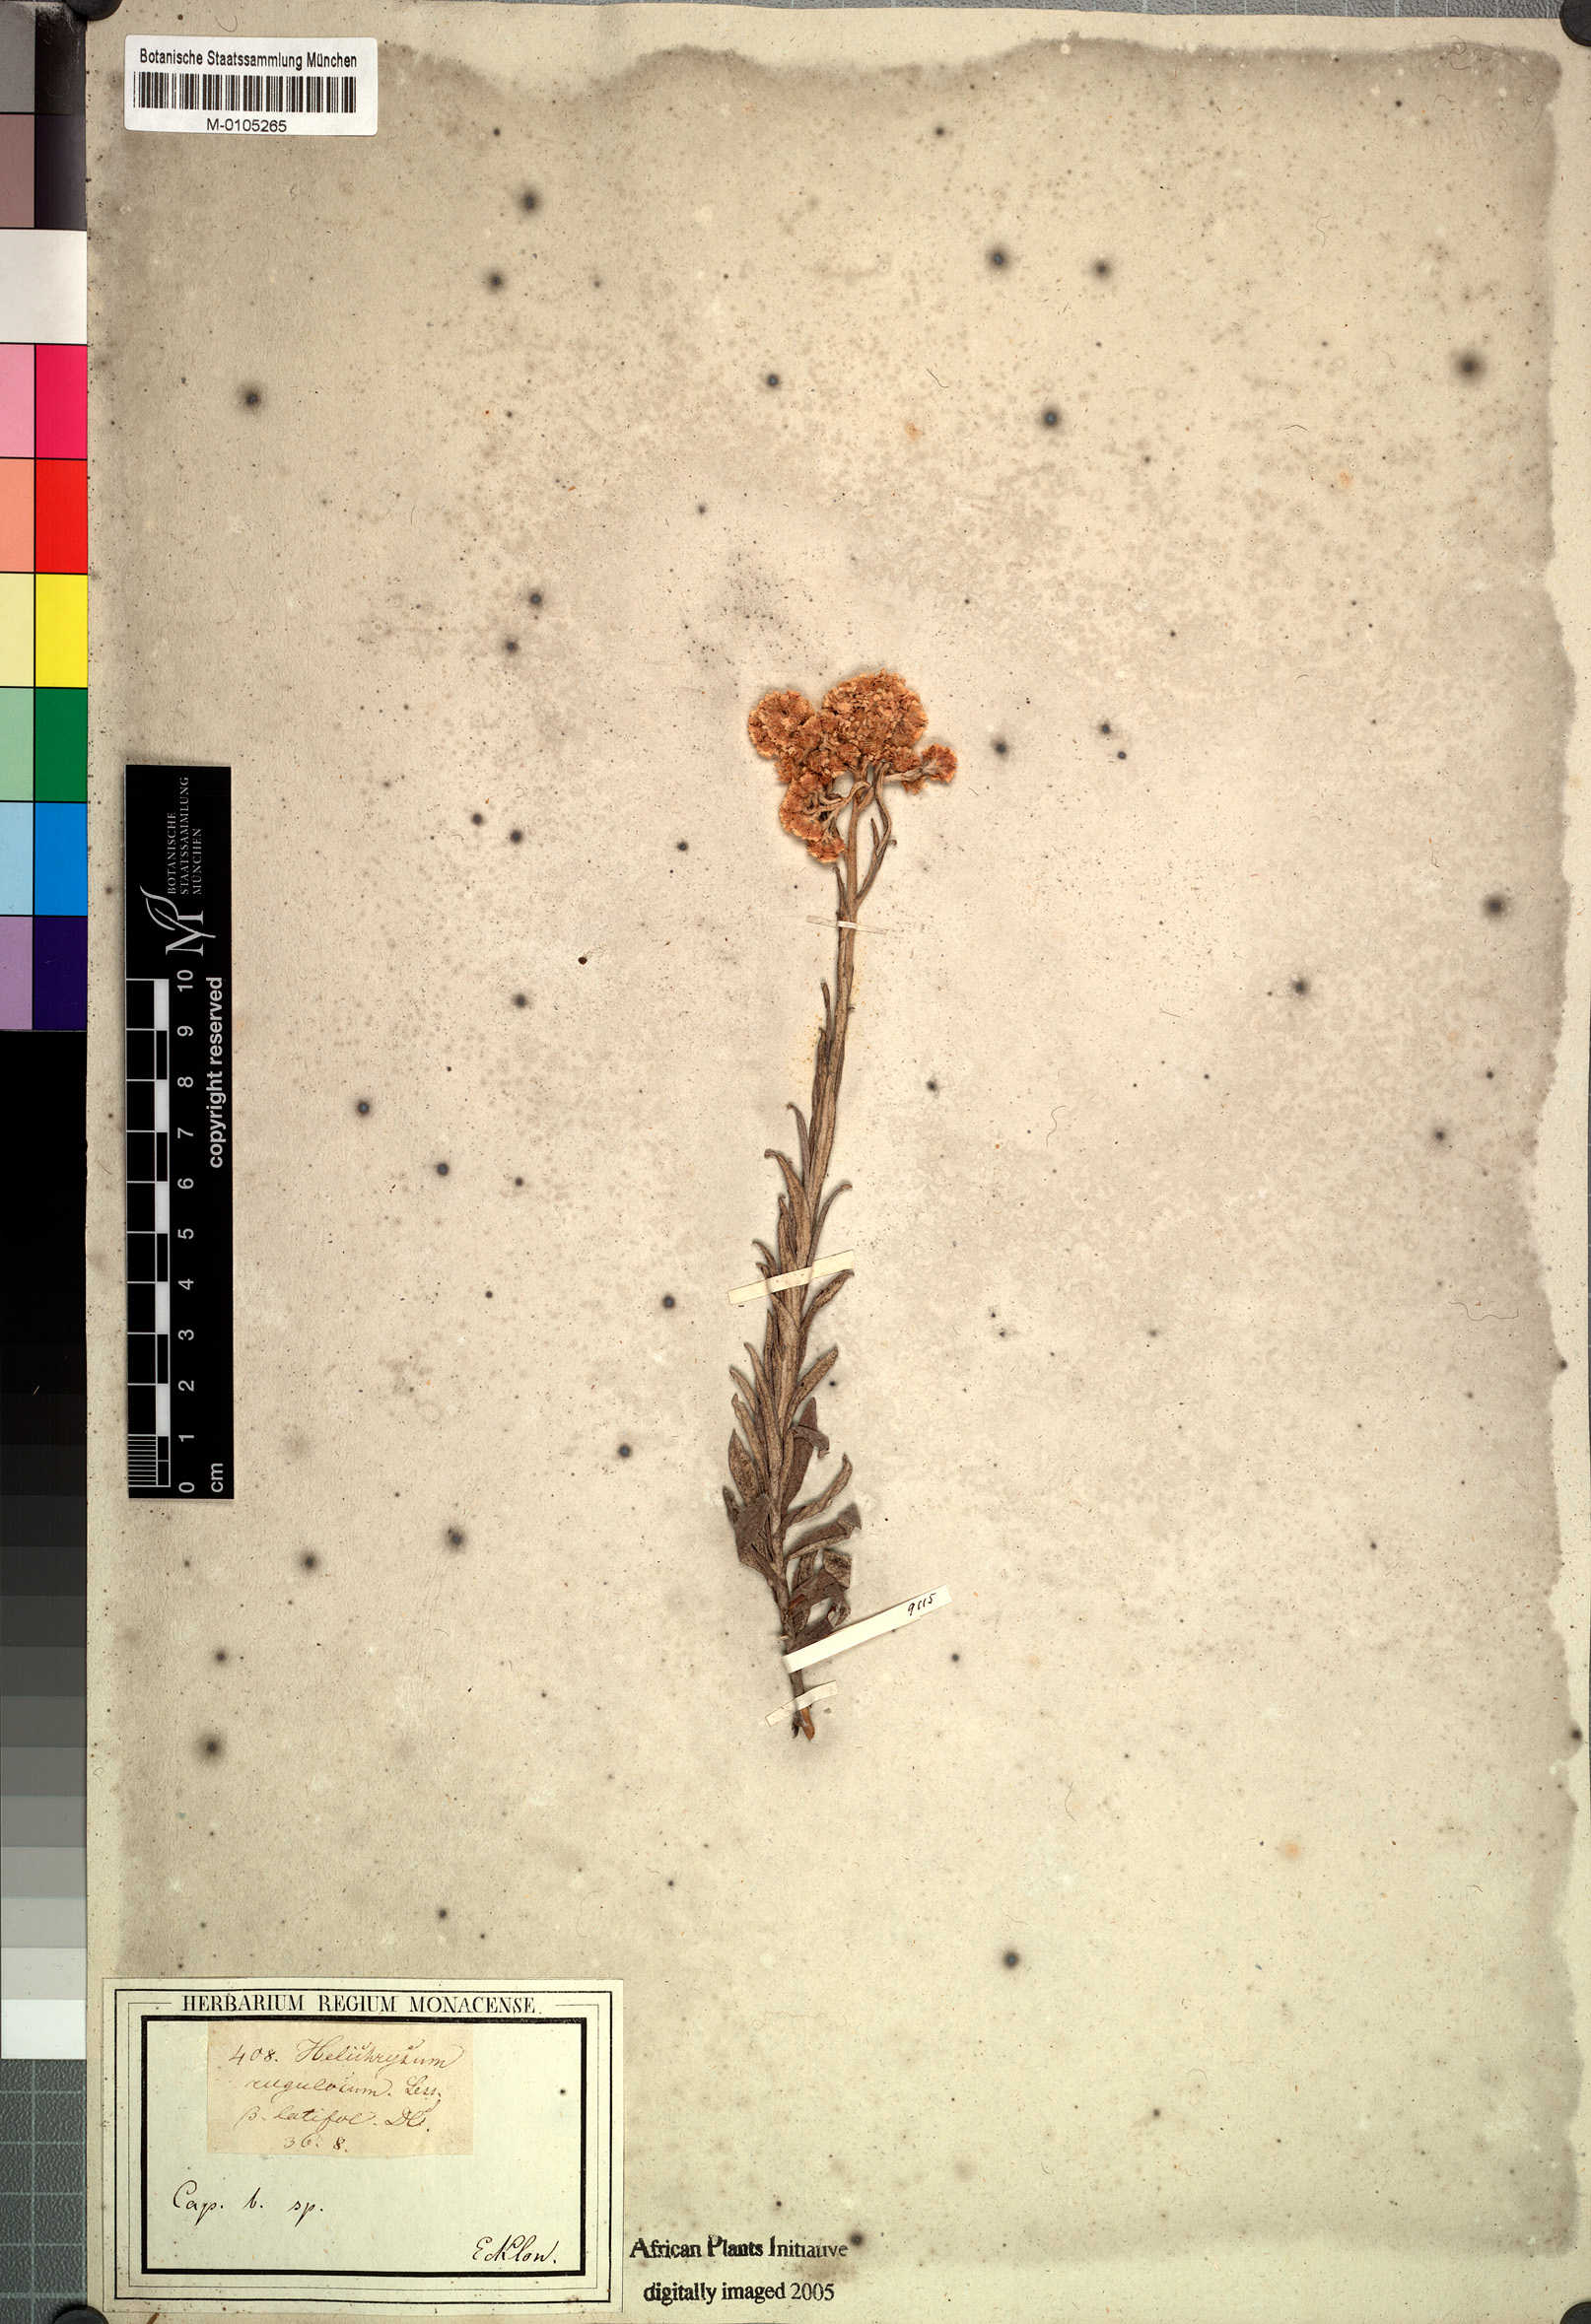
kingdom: Plantae
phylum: Tracheophyta
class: Magnoliopsida
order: Asterales
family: Asteraceae
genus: Helichrysum
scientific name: Helichrysum rugulosum
